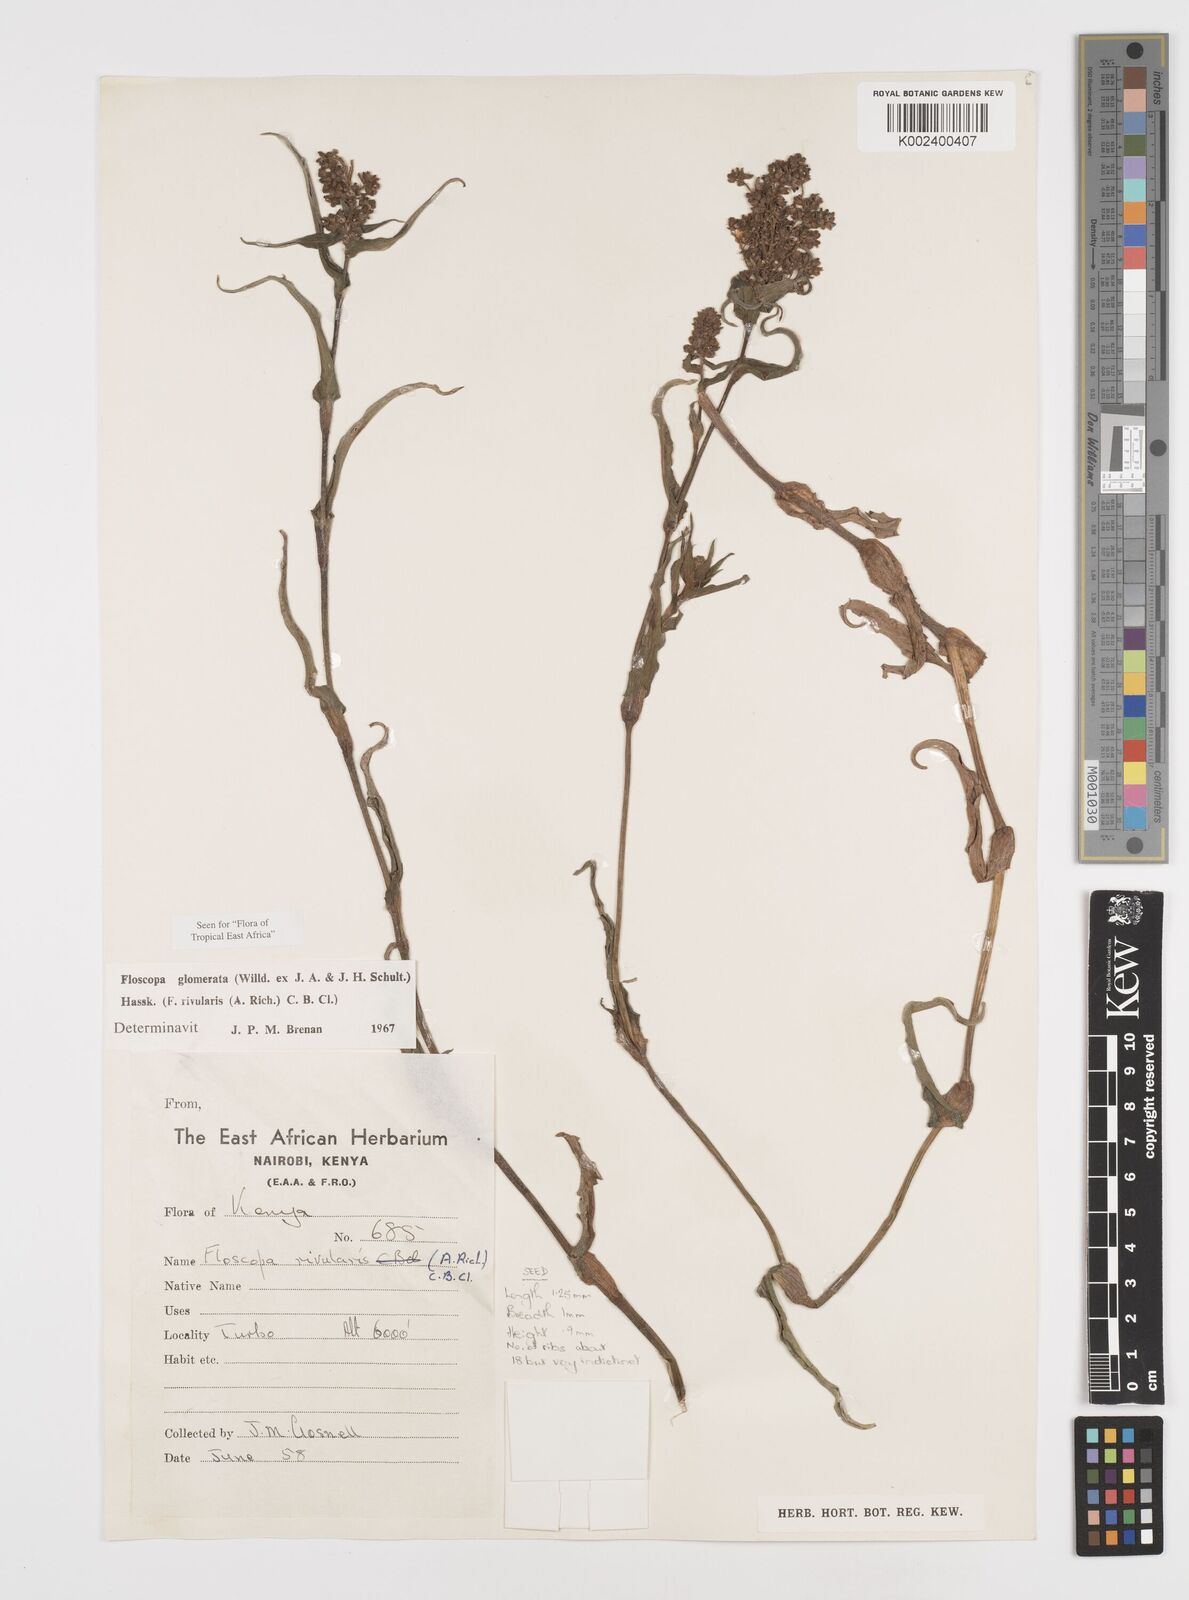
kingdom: Plantae
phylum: Tracheophyta
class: Liliopsida
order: Commelinales
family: Commelinaceae
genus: Floscopa
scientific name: Floscopa glomerata
